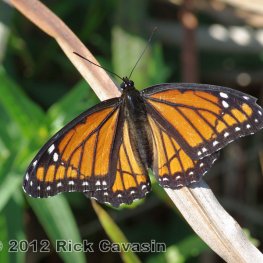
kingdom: Animalia
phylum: Arthropoda
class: Insecta
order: Lepidoptera
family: Nymphalidae
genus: Limenitis
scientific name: Limenitis archippus
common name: Viceroy
